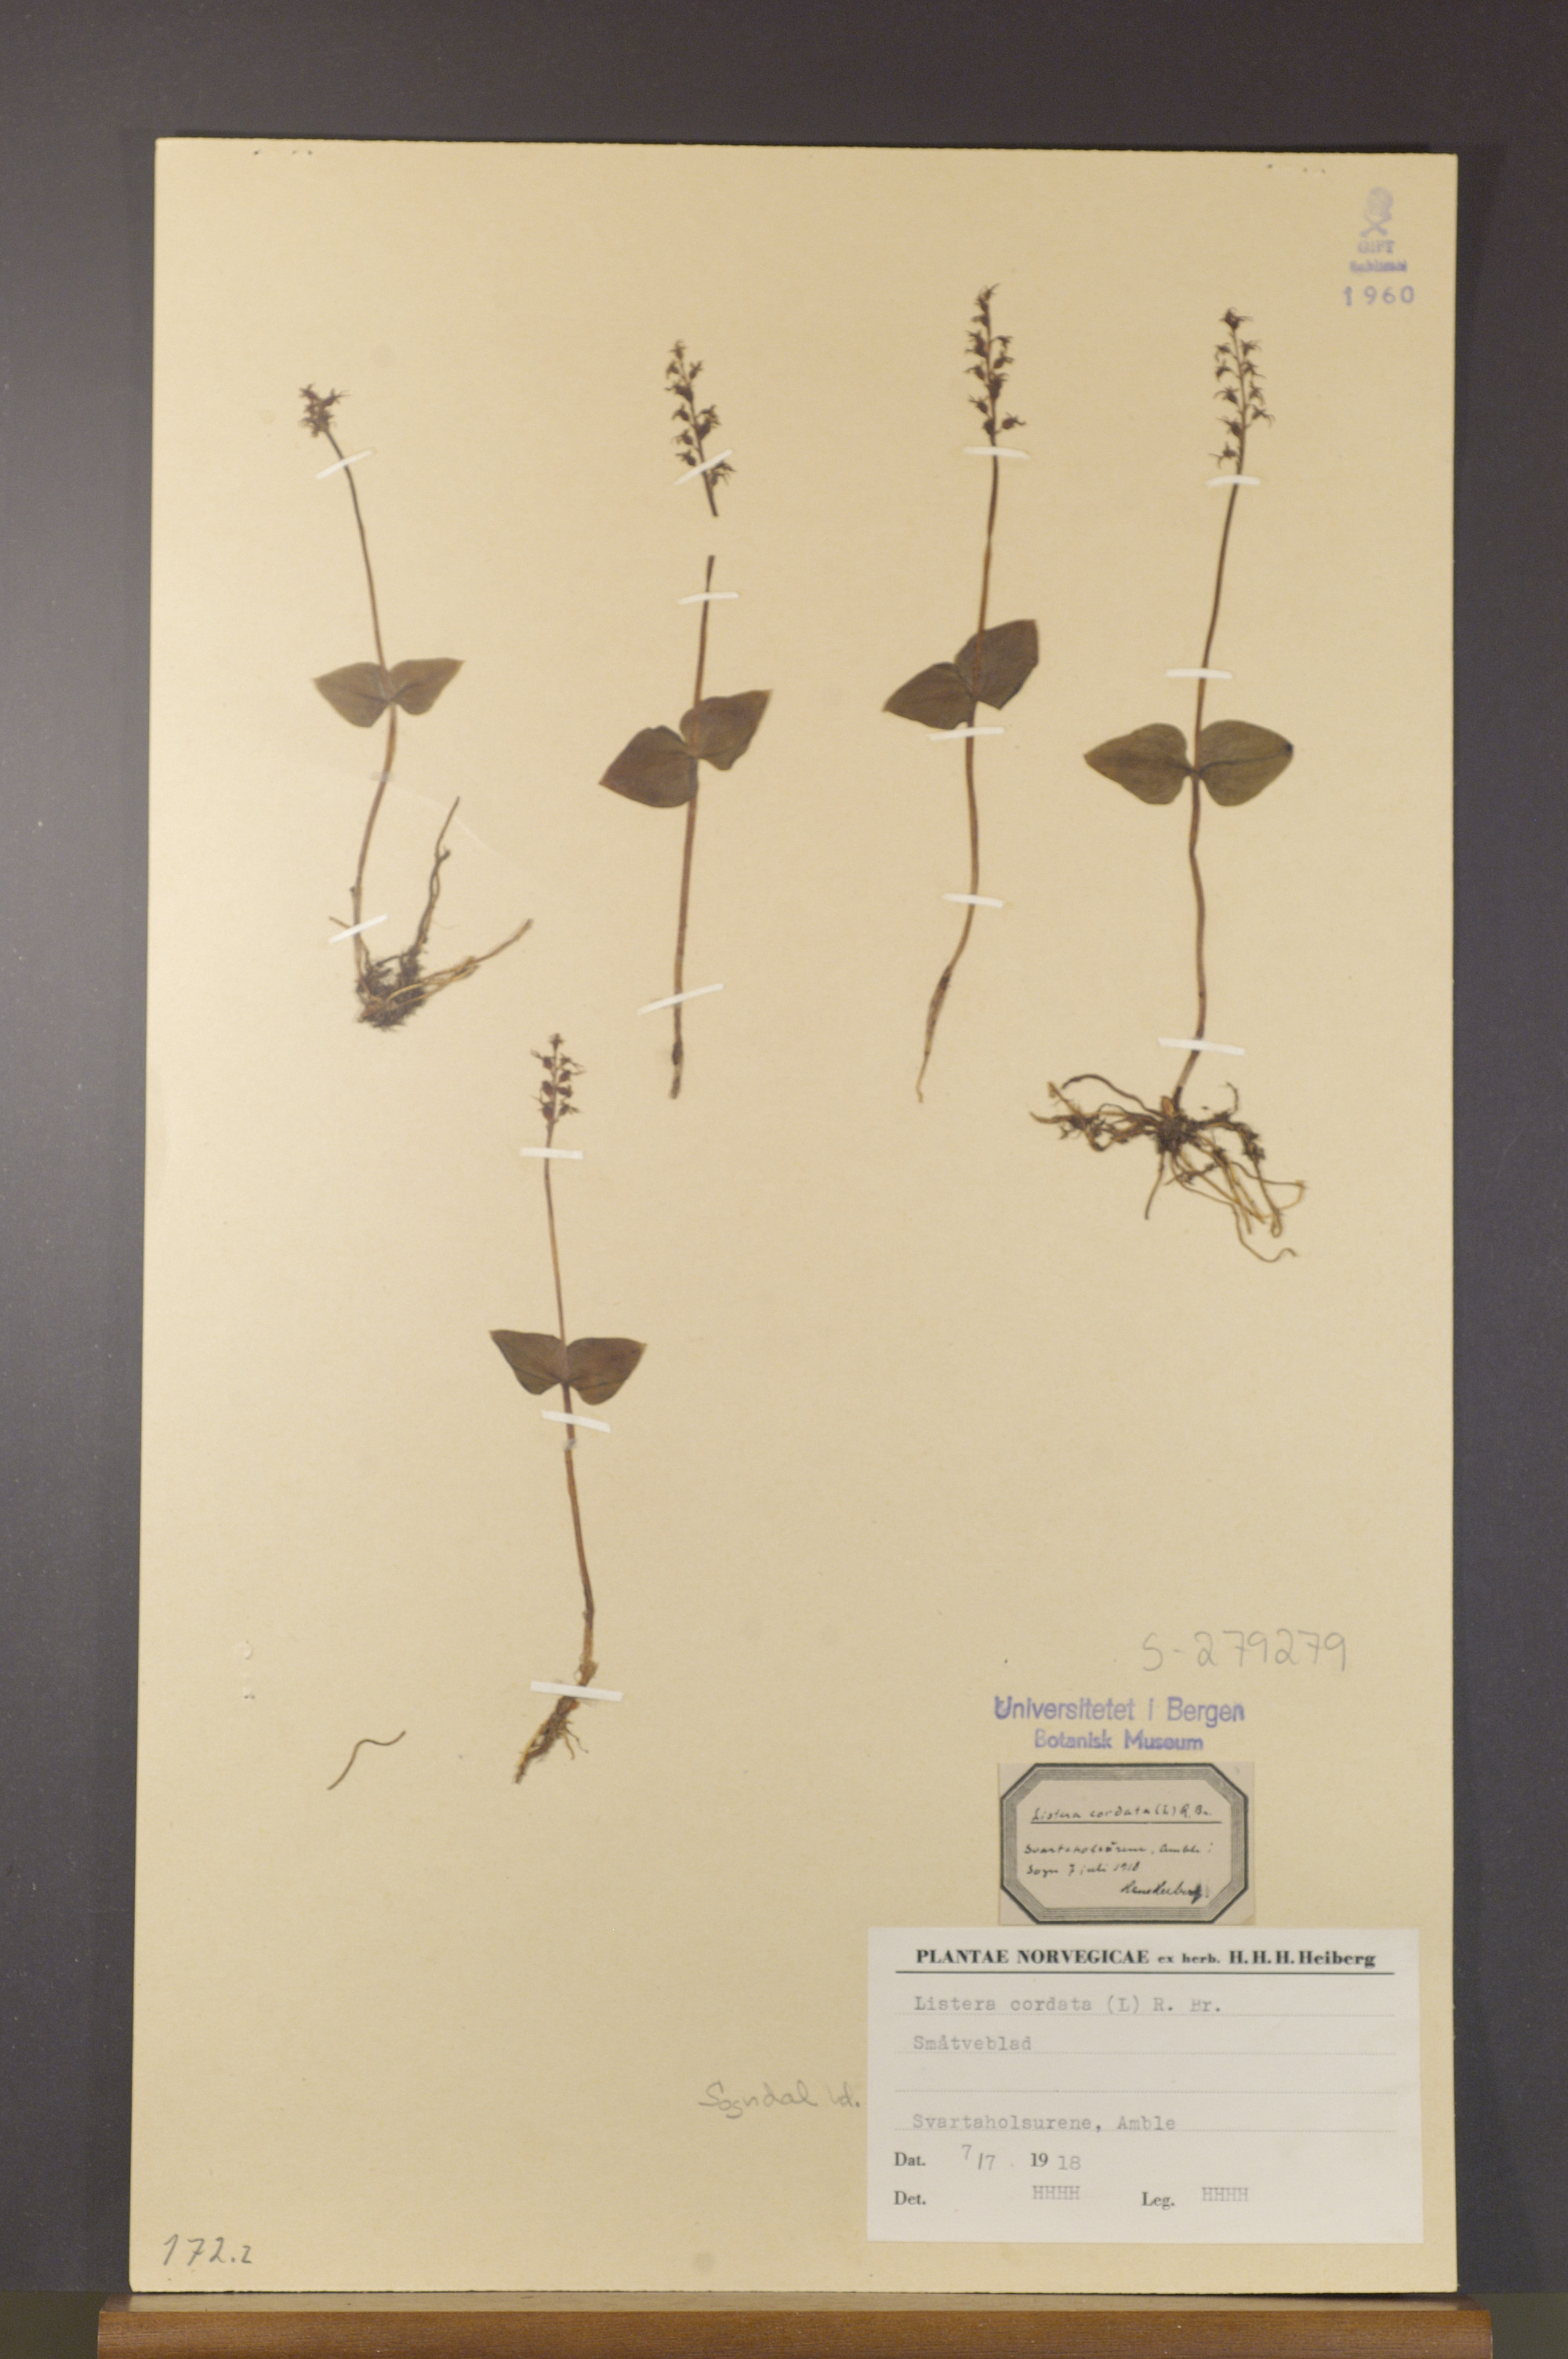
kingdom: Plantae
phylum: Tracheophyta
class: Liliopsida
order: Asparagales
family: Orchidaceae
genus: Neottia
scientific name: Neottia cordata
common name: Lesser twayblade
